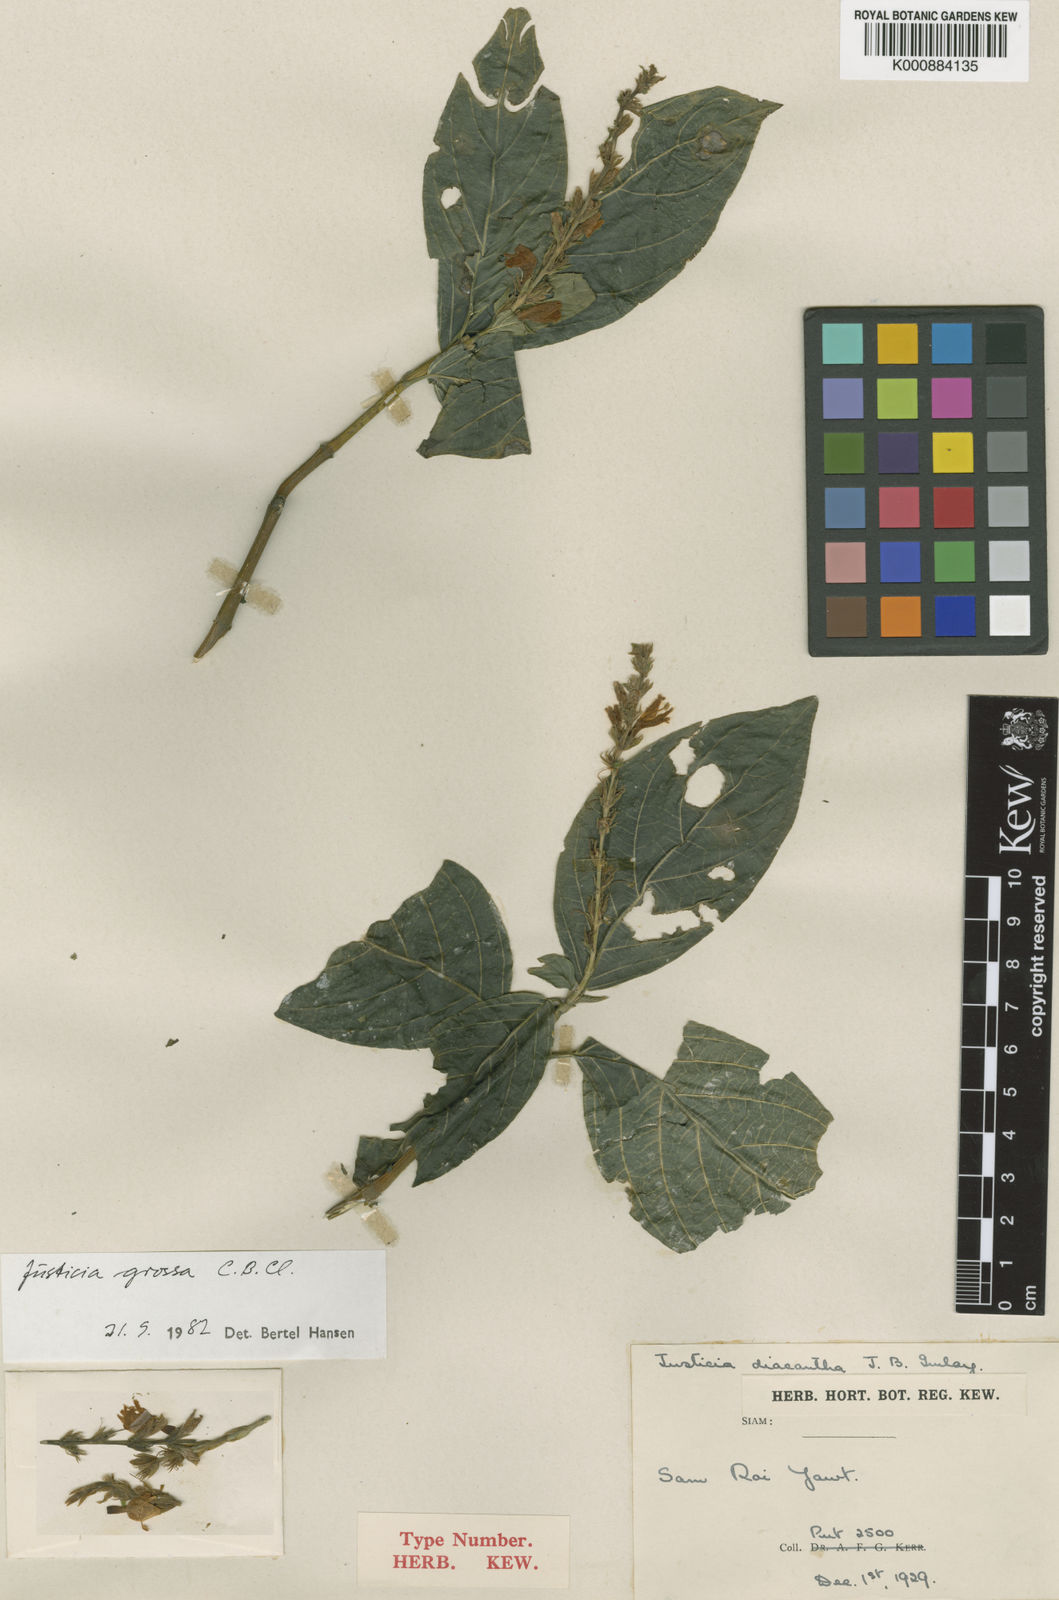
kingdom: Plantae
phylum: Tracheophyta
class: Magnoliopsida
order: Lamiales
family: Acanthaceae
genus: Ecbolium
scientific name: Ecbolium grossum
